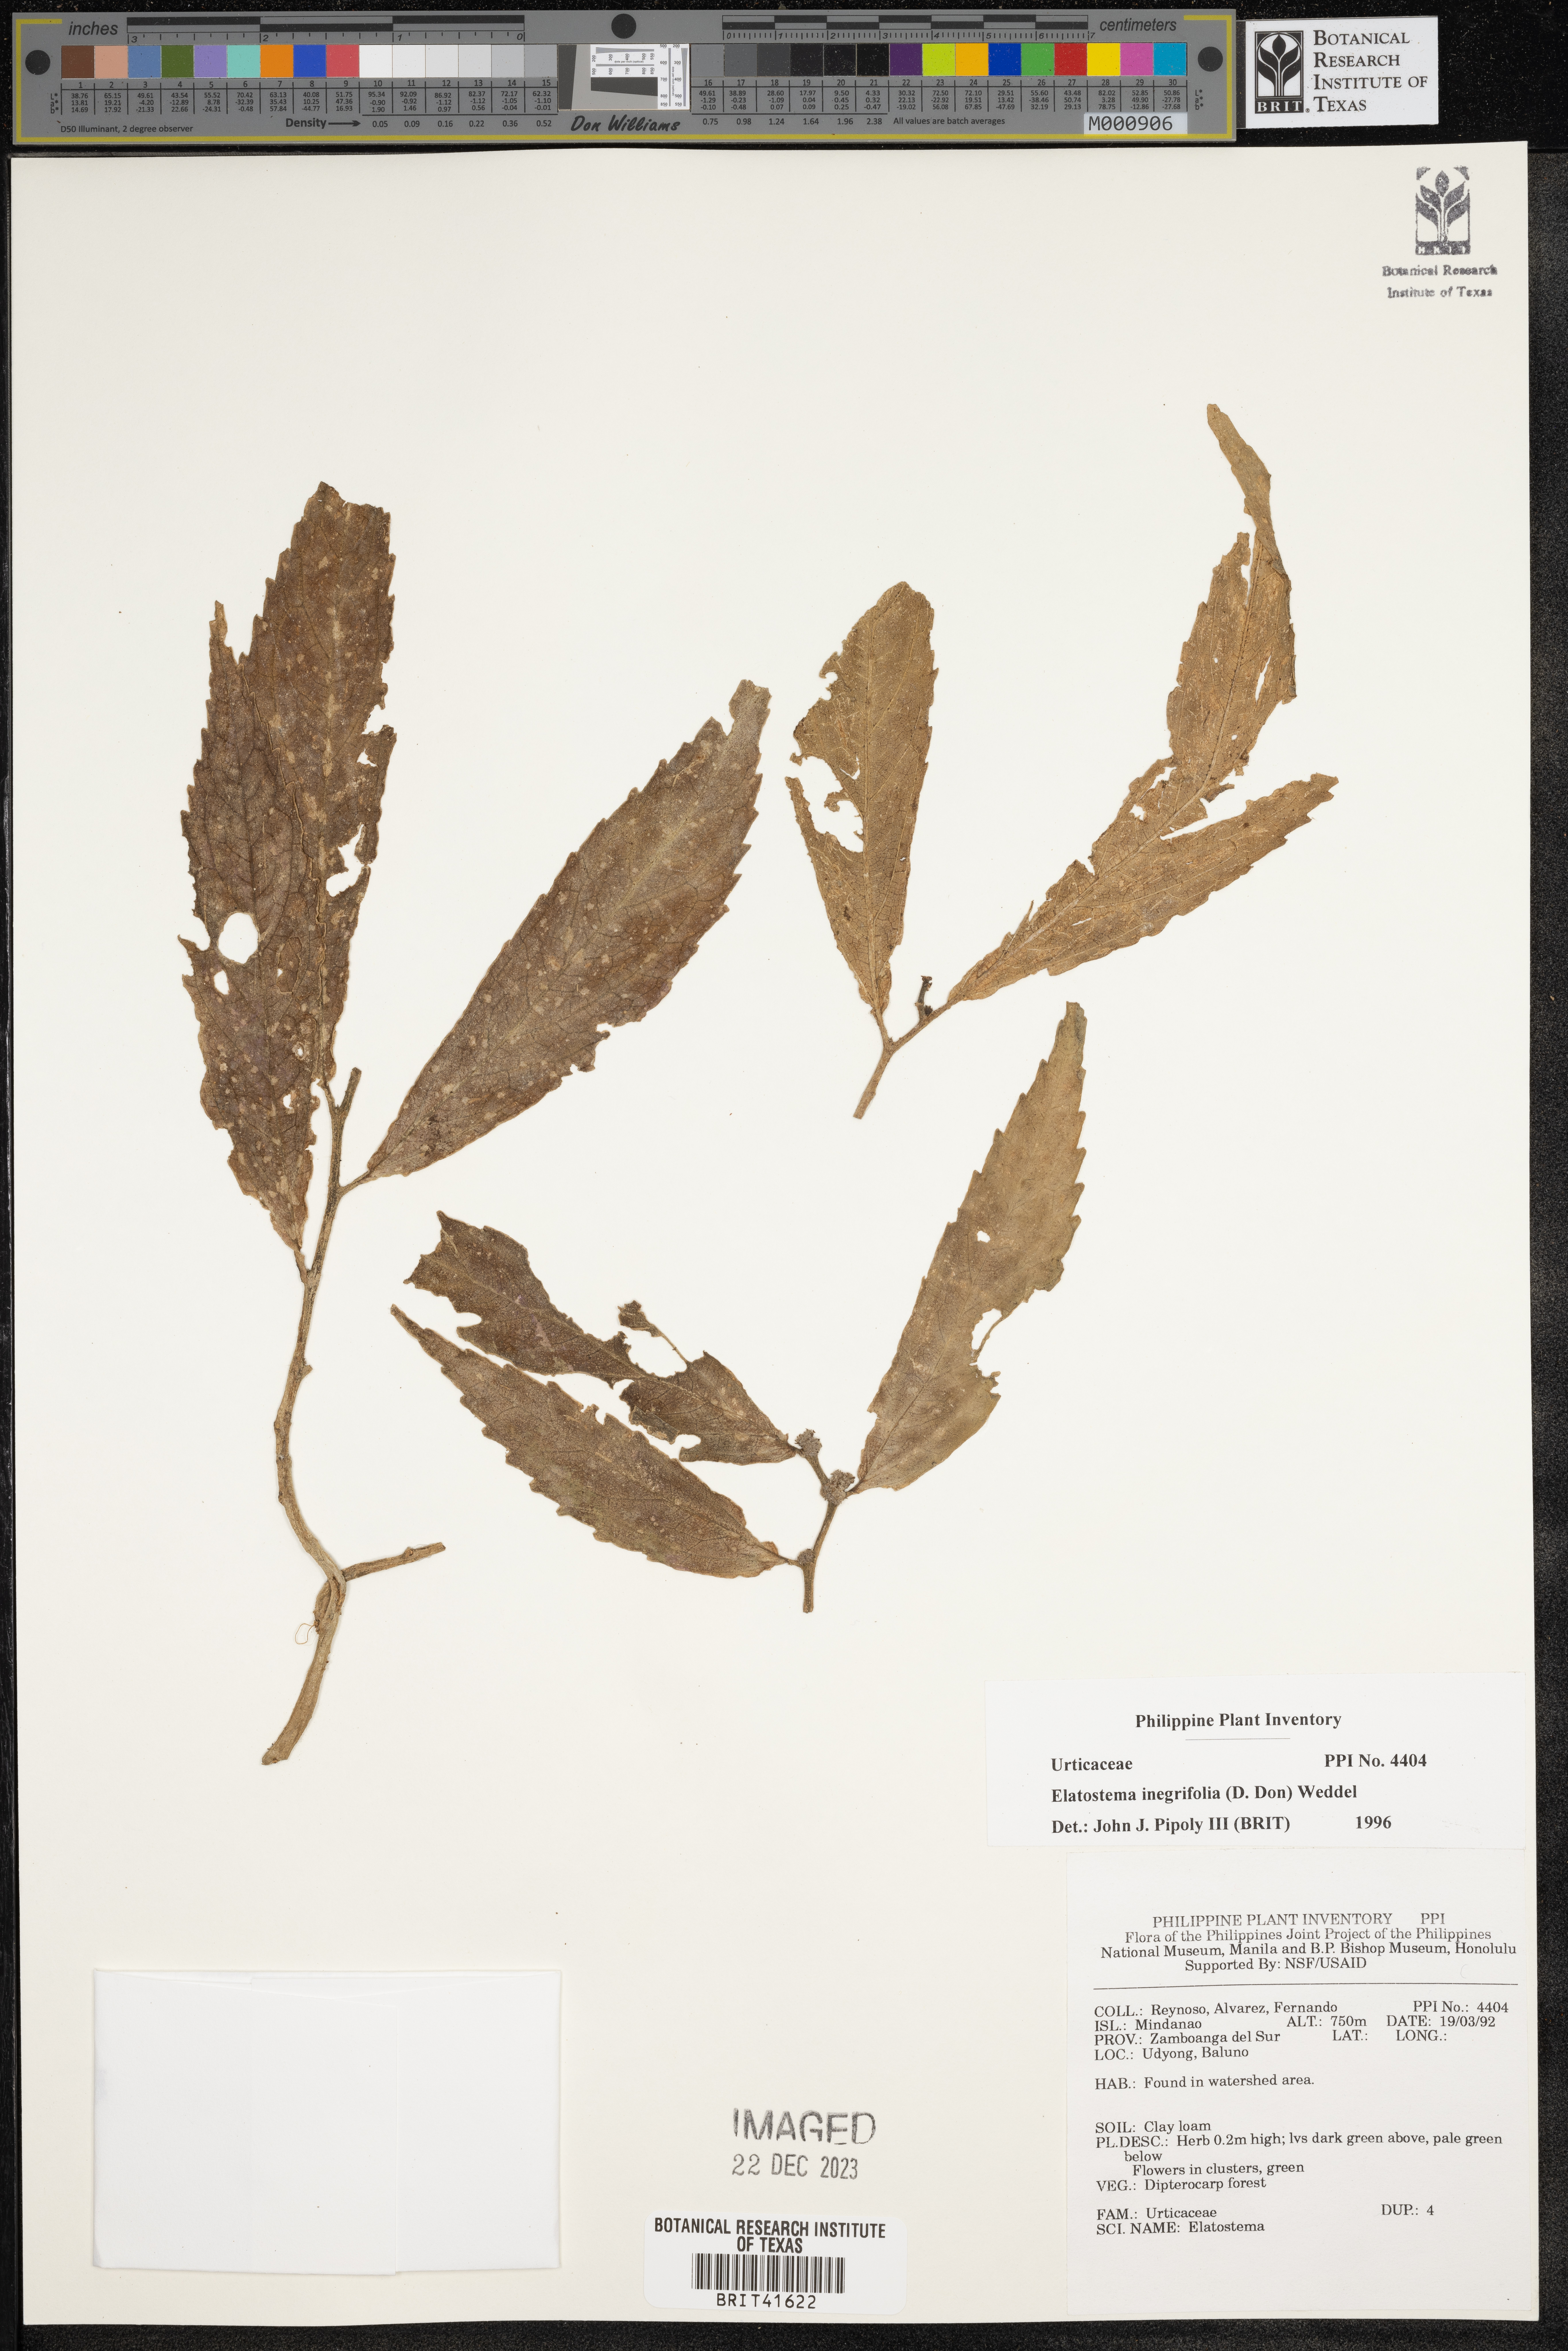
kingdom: Plantae
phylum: Tracheophyta
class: Magnoliopsida
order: Rosales
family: Urticaceae
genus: Elatostema
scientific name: Elatostema integrifolium
